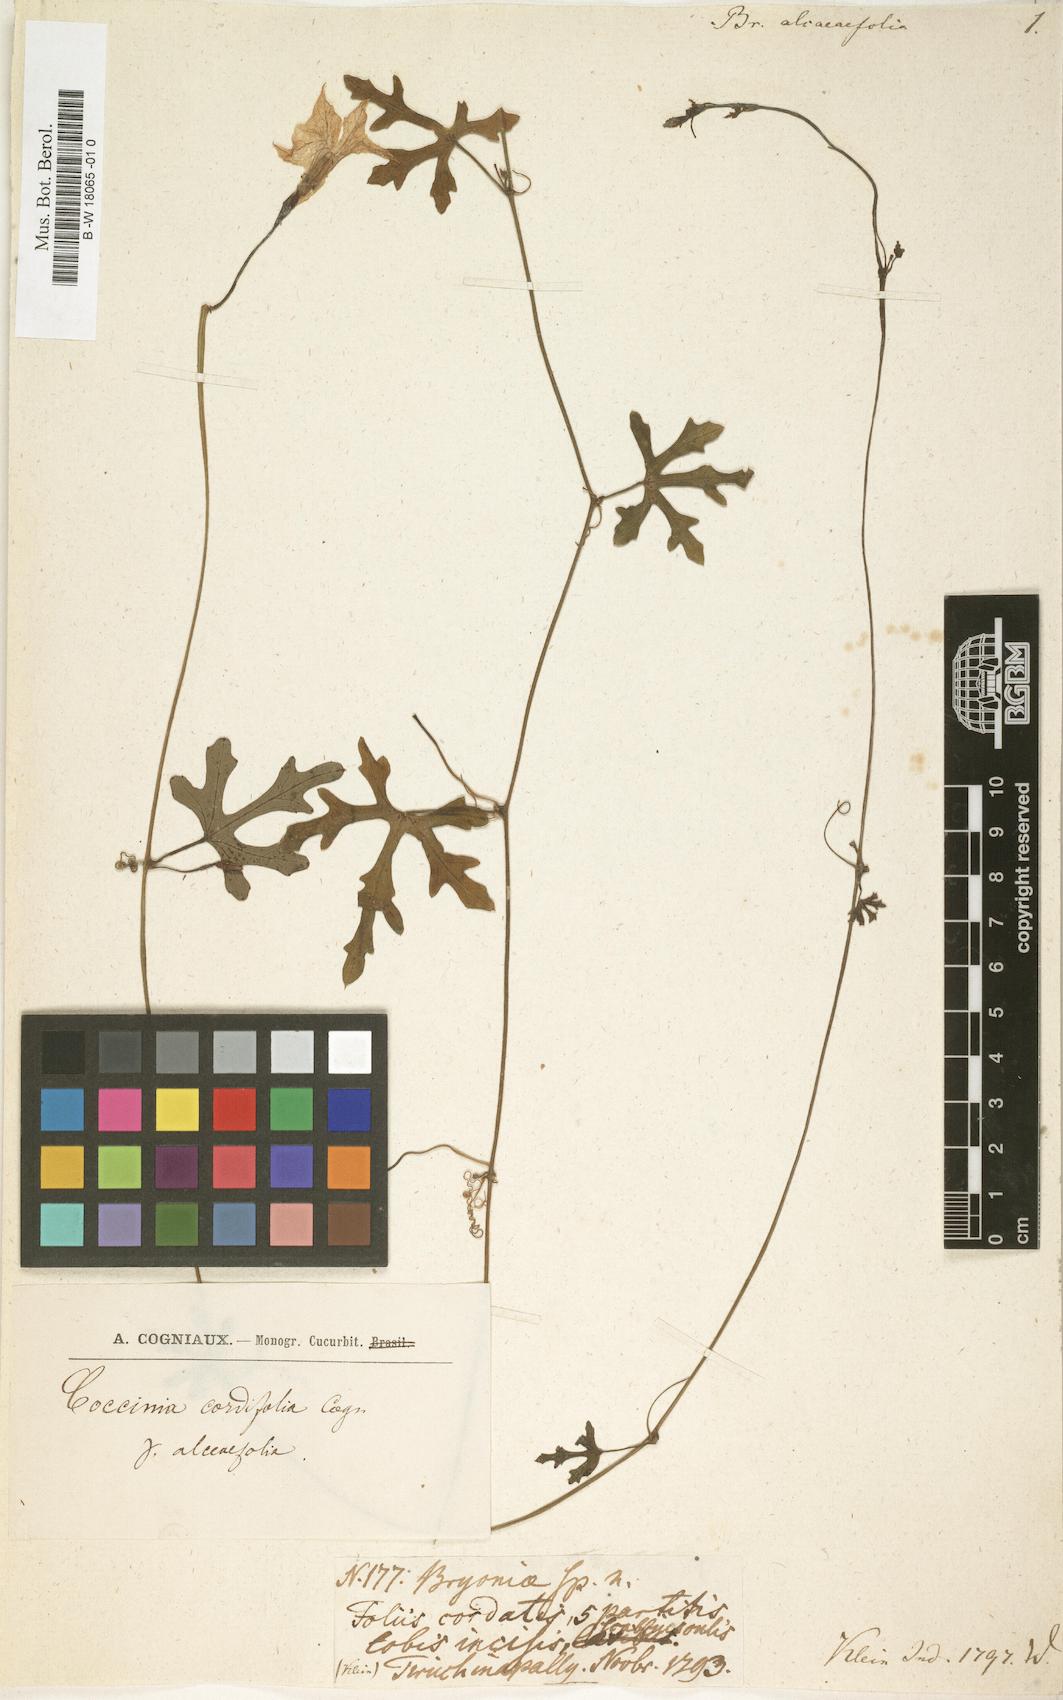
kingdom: Plantae
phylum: Tracheophyta
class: Magnoliopsida
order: Cucurbitales
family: Cucurbitaceae
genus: Coccinia
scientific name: Coccinia grandis
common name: Ivy gourd
